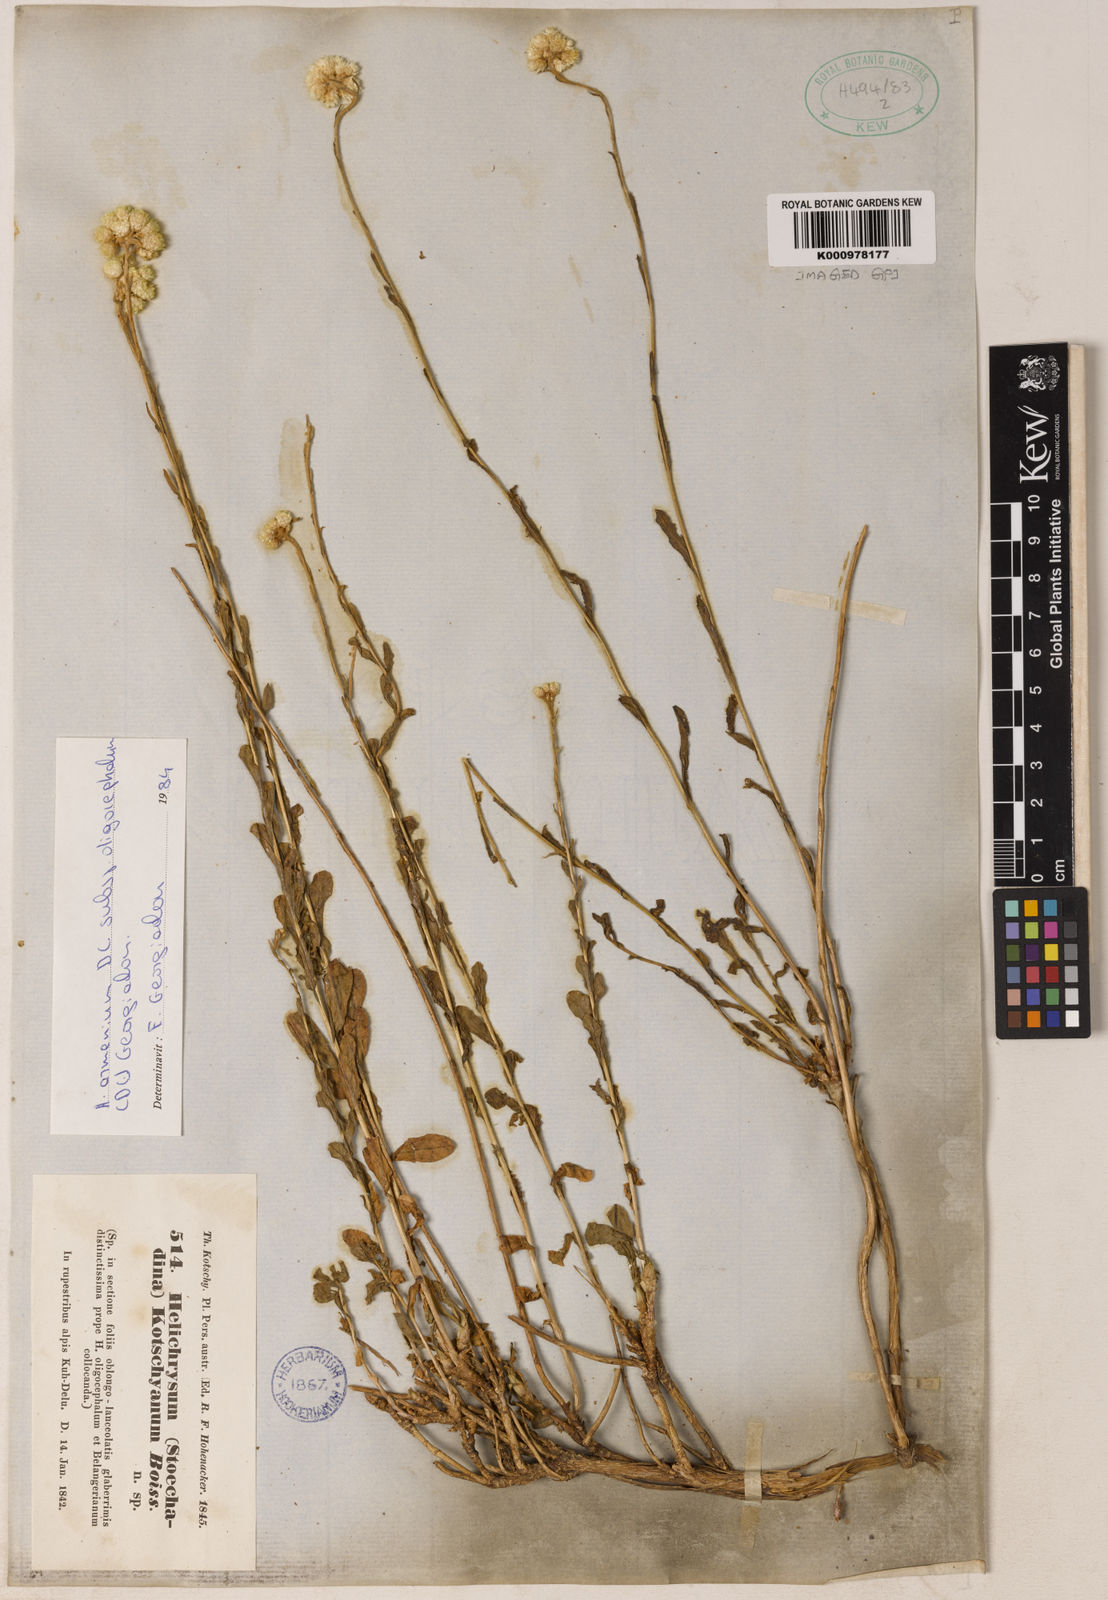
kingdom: Plantae
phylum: Tracheophyta
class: Magnoliopsida
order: Asterales
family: Asteraceae
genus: Helichrysum
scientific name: Helichrysum armenium
